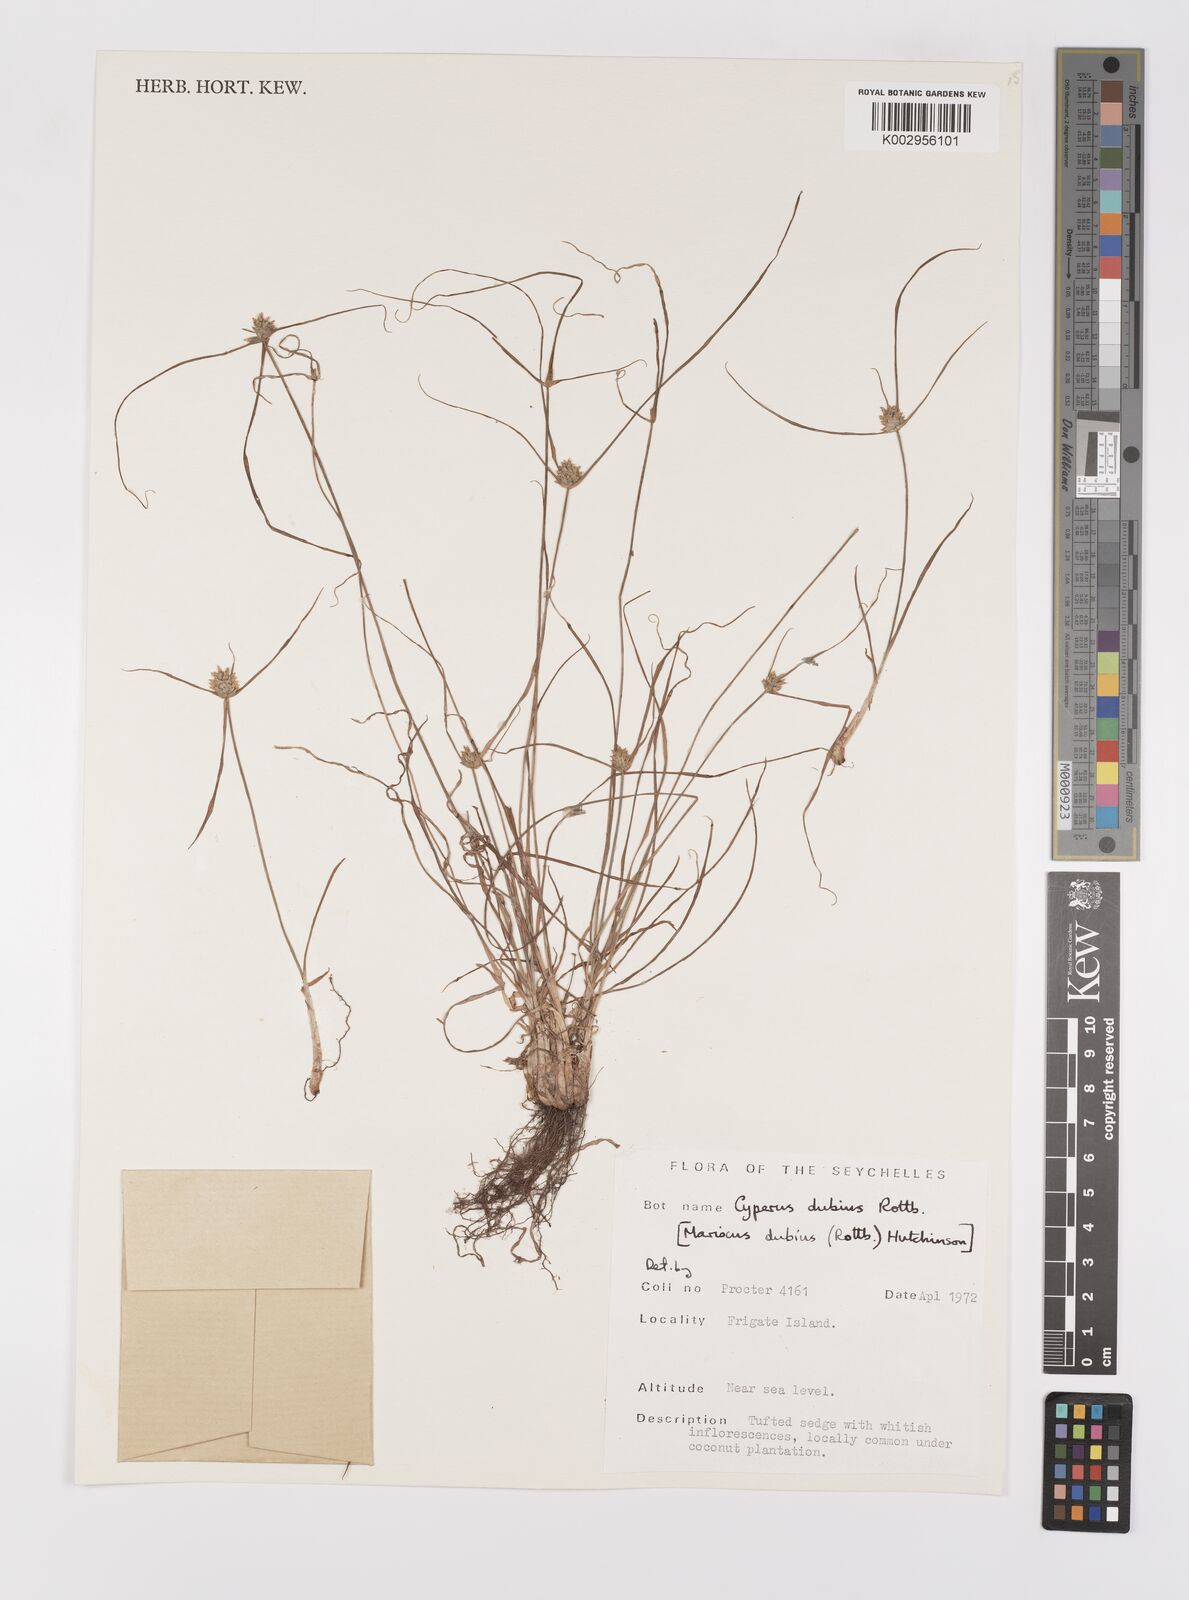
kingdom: Plantae
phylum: Tracheophyta
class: Liliopsida
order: Poales
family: Cyperaceae
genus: Cyperus
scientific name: Cyperus dubius
